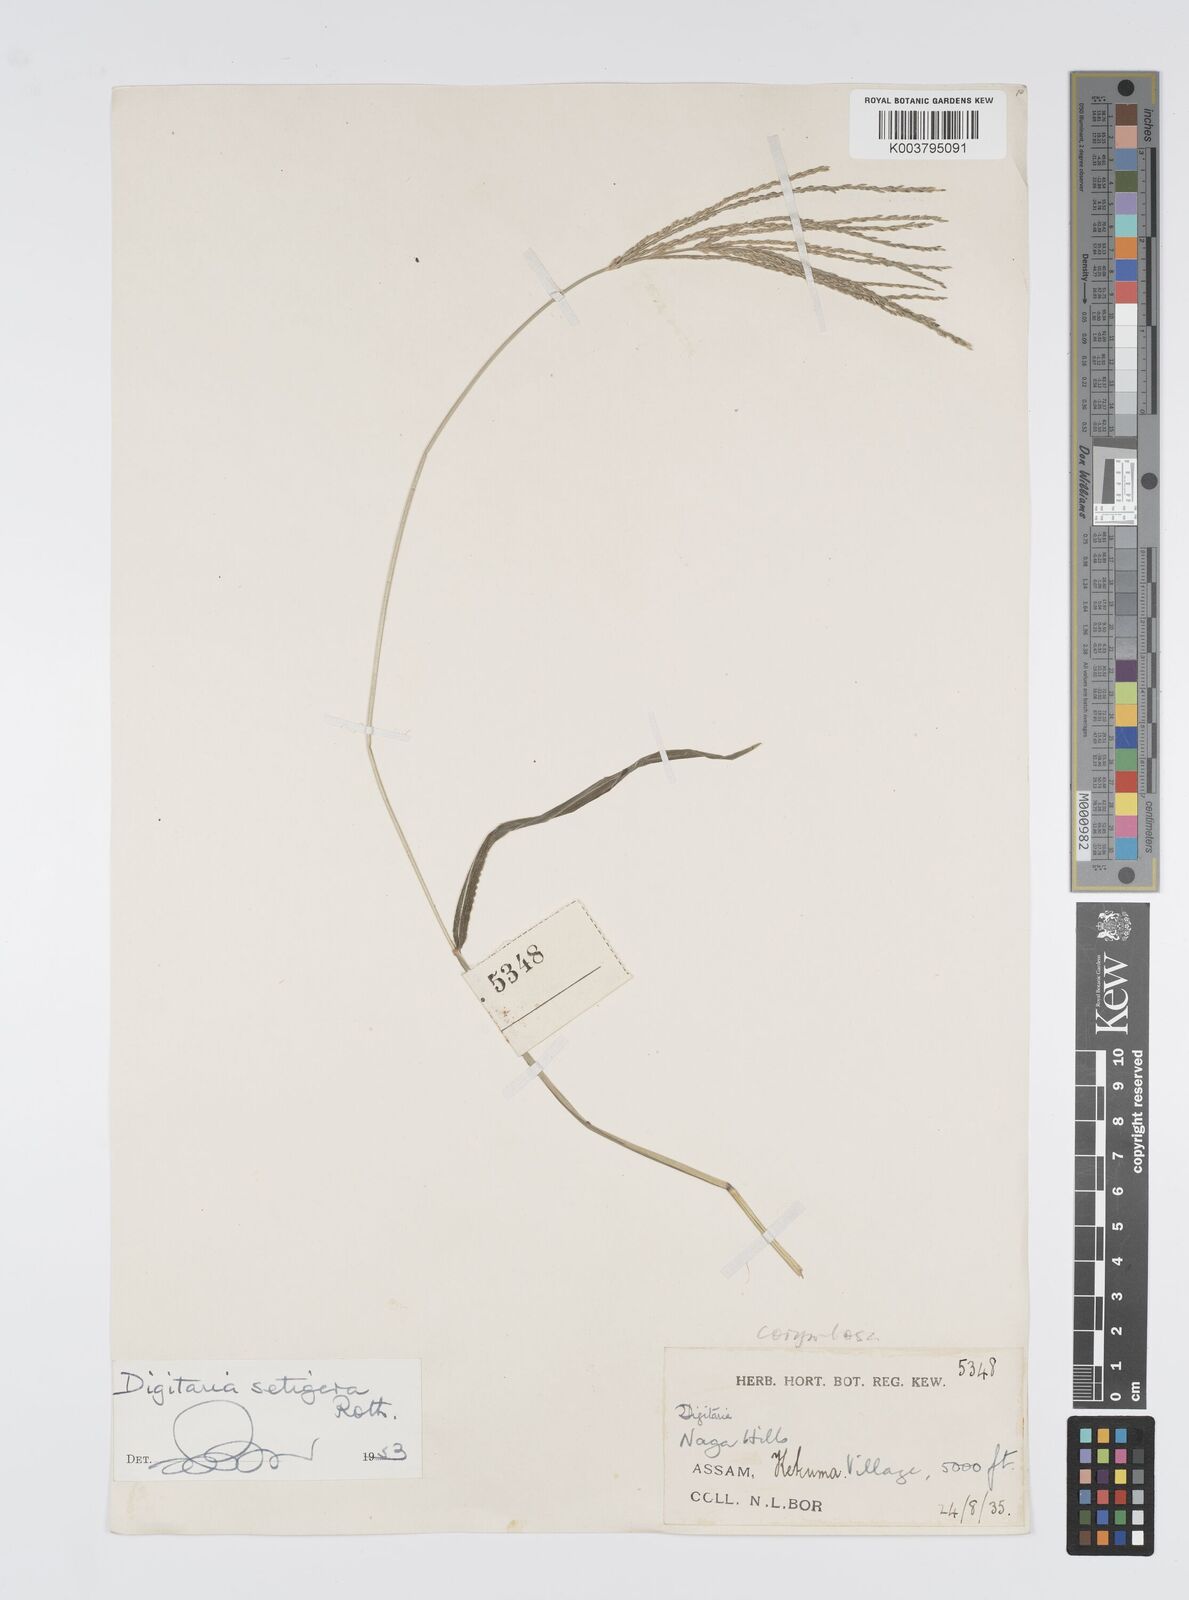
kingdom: Plantae
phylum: Tracheophyta
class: Liliopsida
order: Poales
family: Poaceae
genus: Digitaria
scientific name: Digitaria setigera
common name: East indian crabgrass
